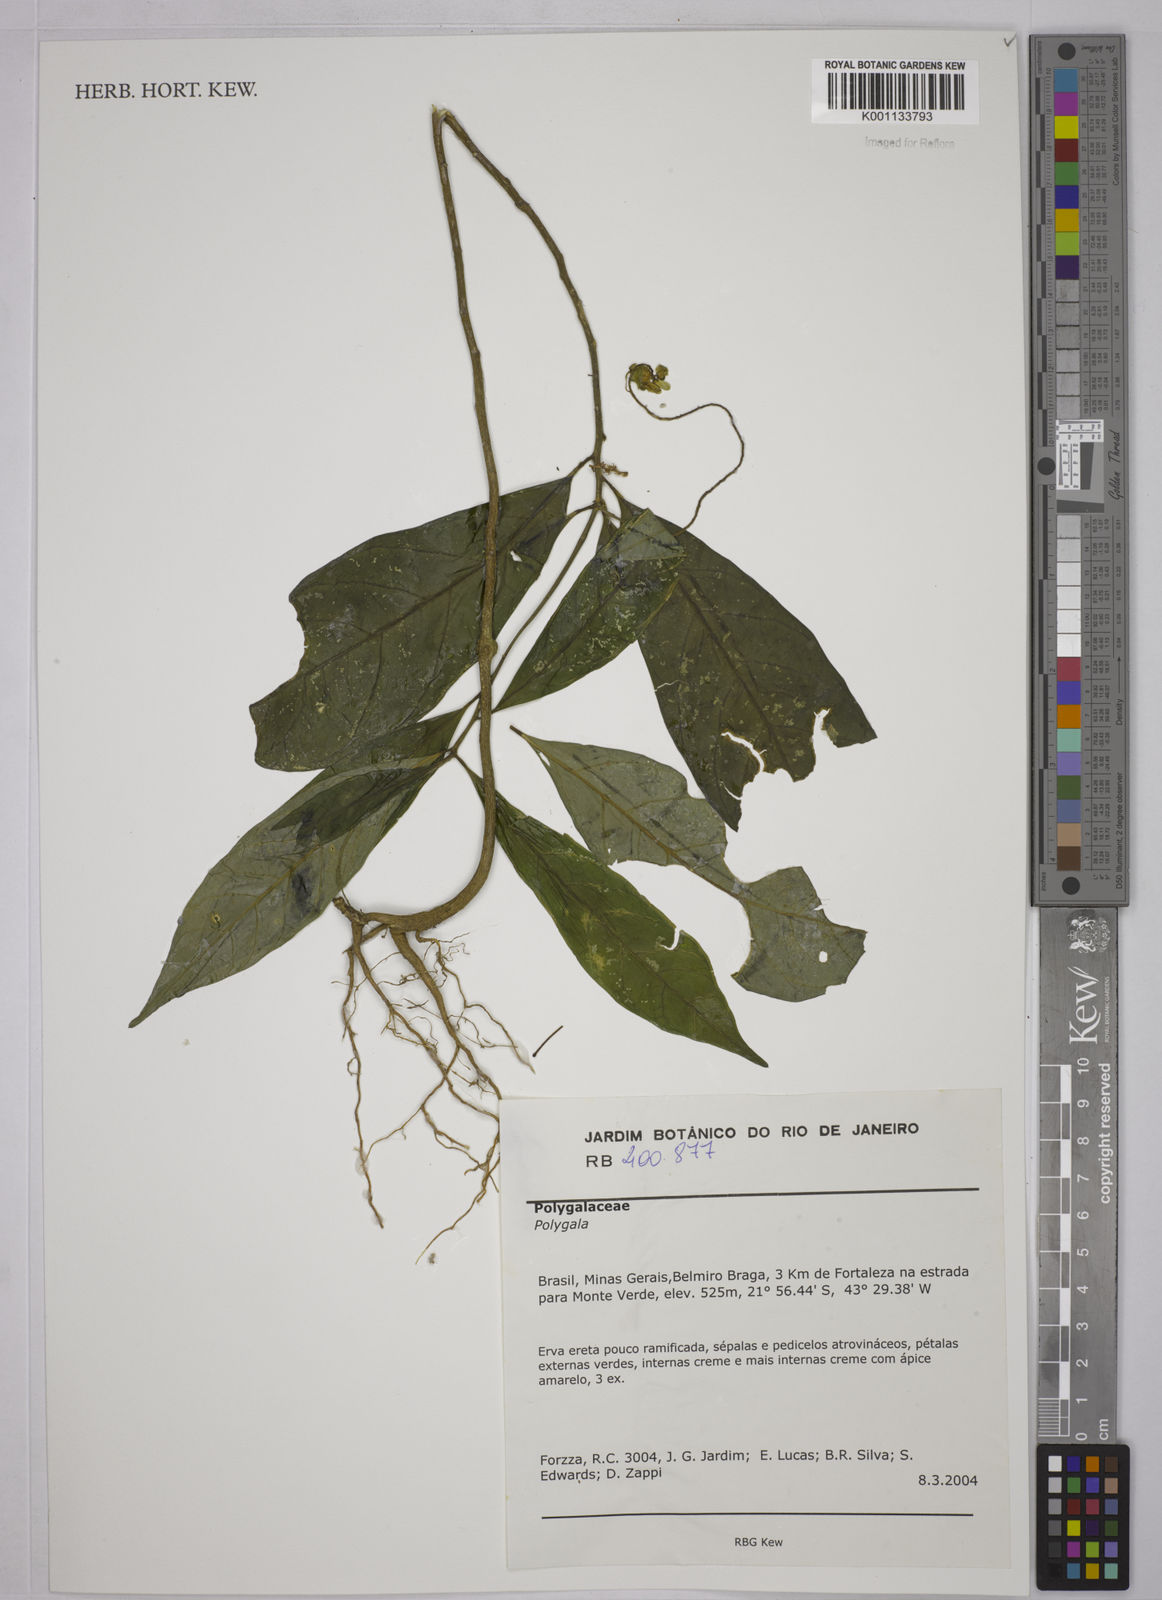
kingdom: Plantae
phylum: Tracheophyta
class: Magnoliopsida
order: Fabales
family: Polygalaceae
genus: Polygala
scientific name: Polygala
